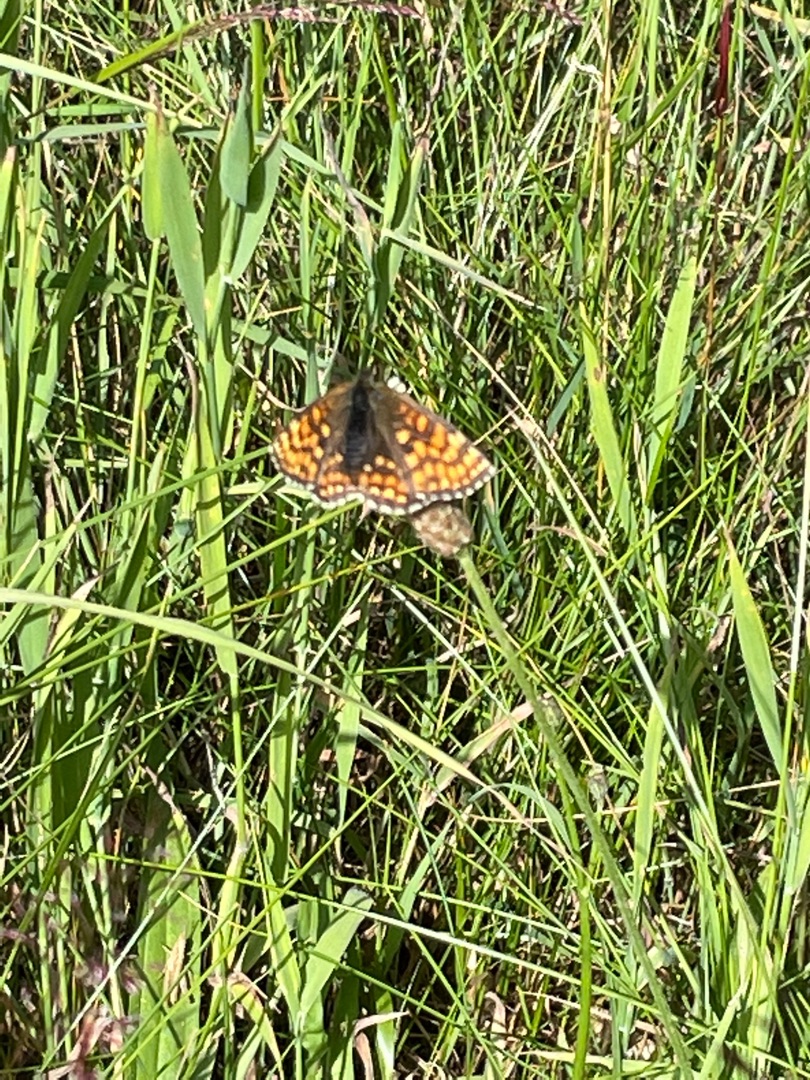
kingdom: Animalia
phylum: Arthropoda
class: Insecta
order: Lepidoptera
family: Nymphalidae
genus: Mellicta
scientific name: Mellicta athalia
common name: Brun pletvinge
